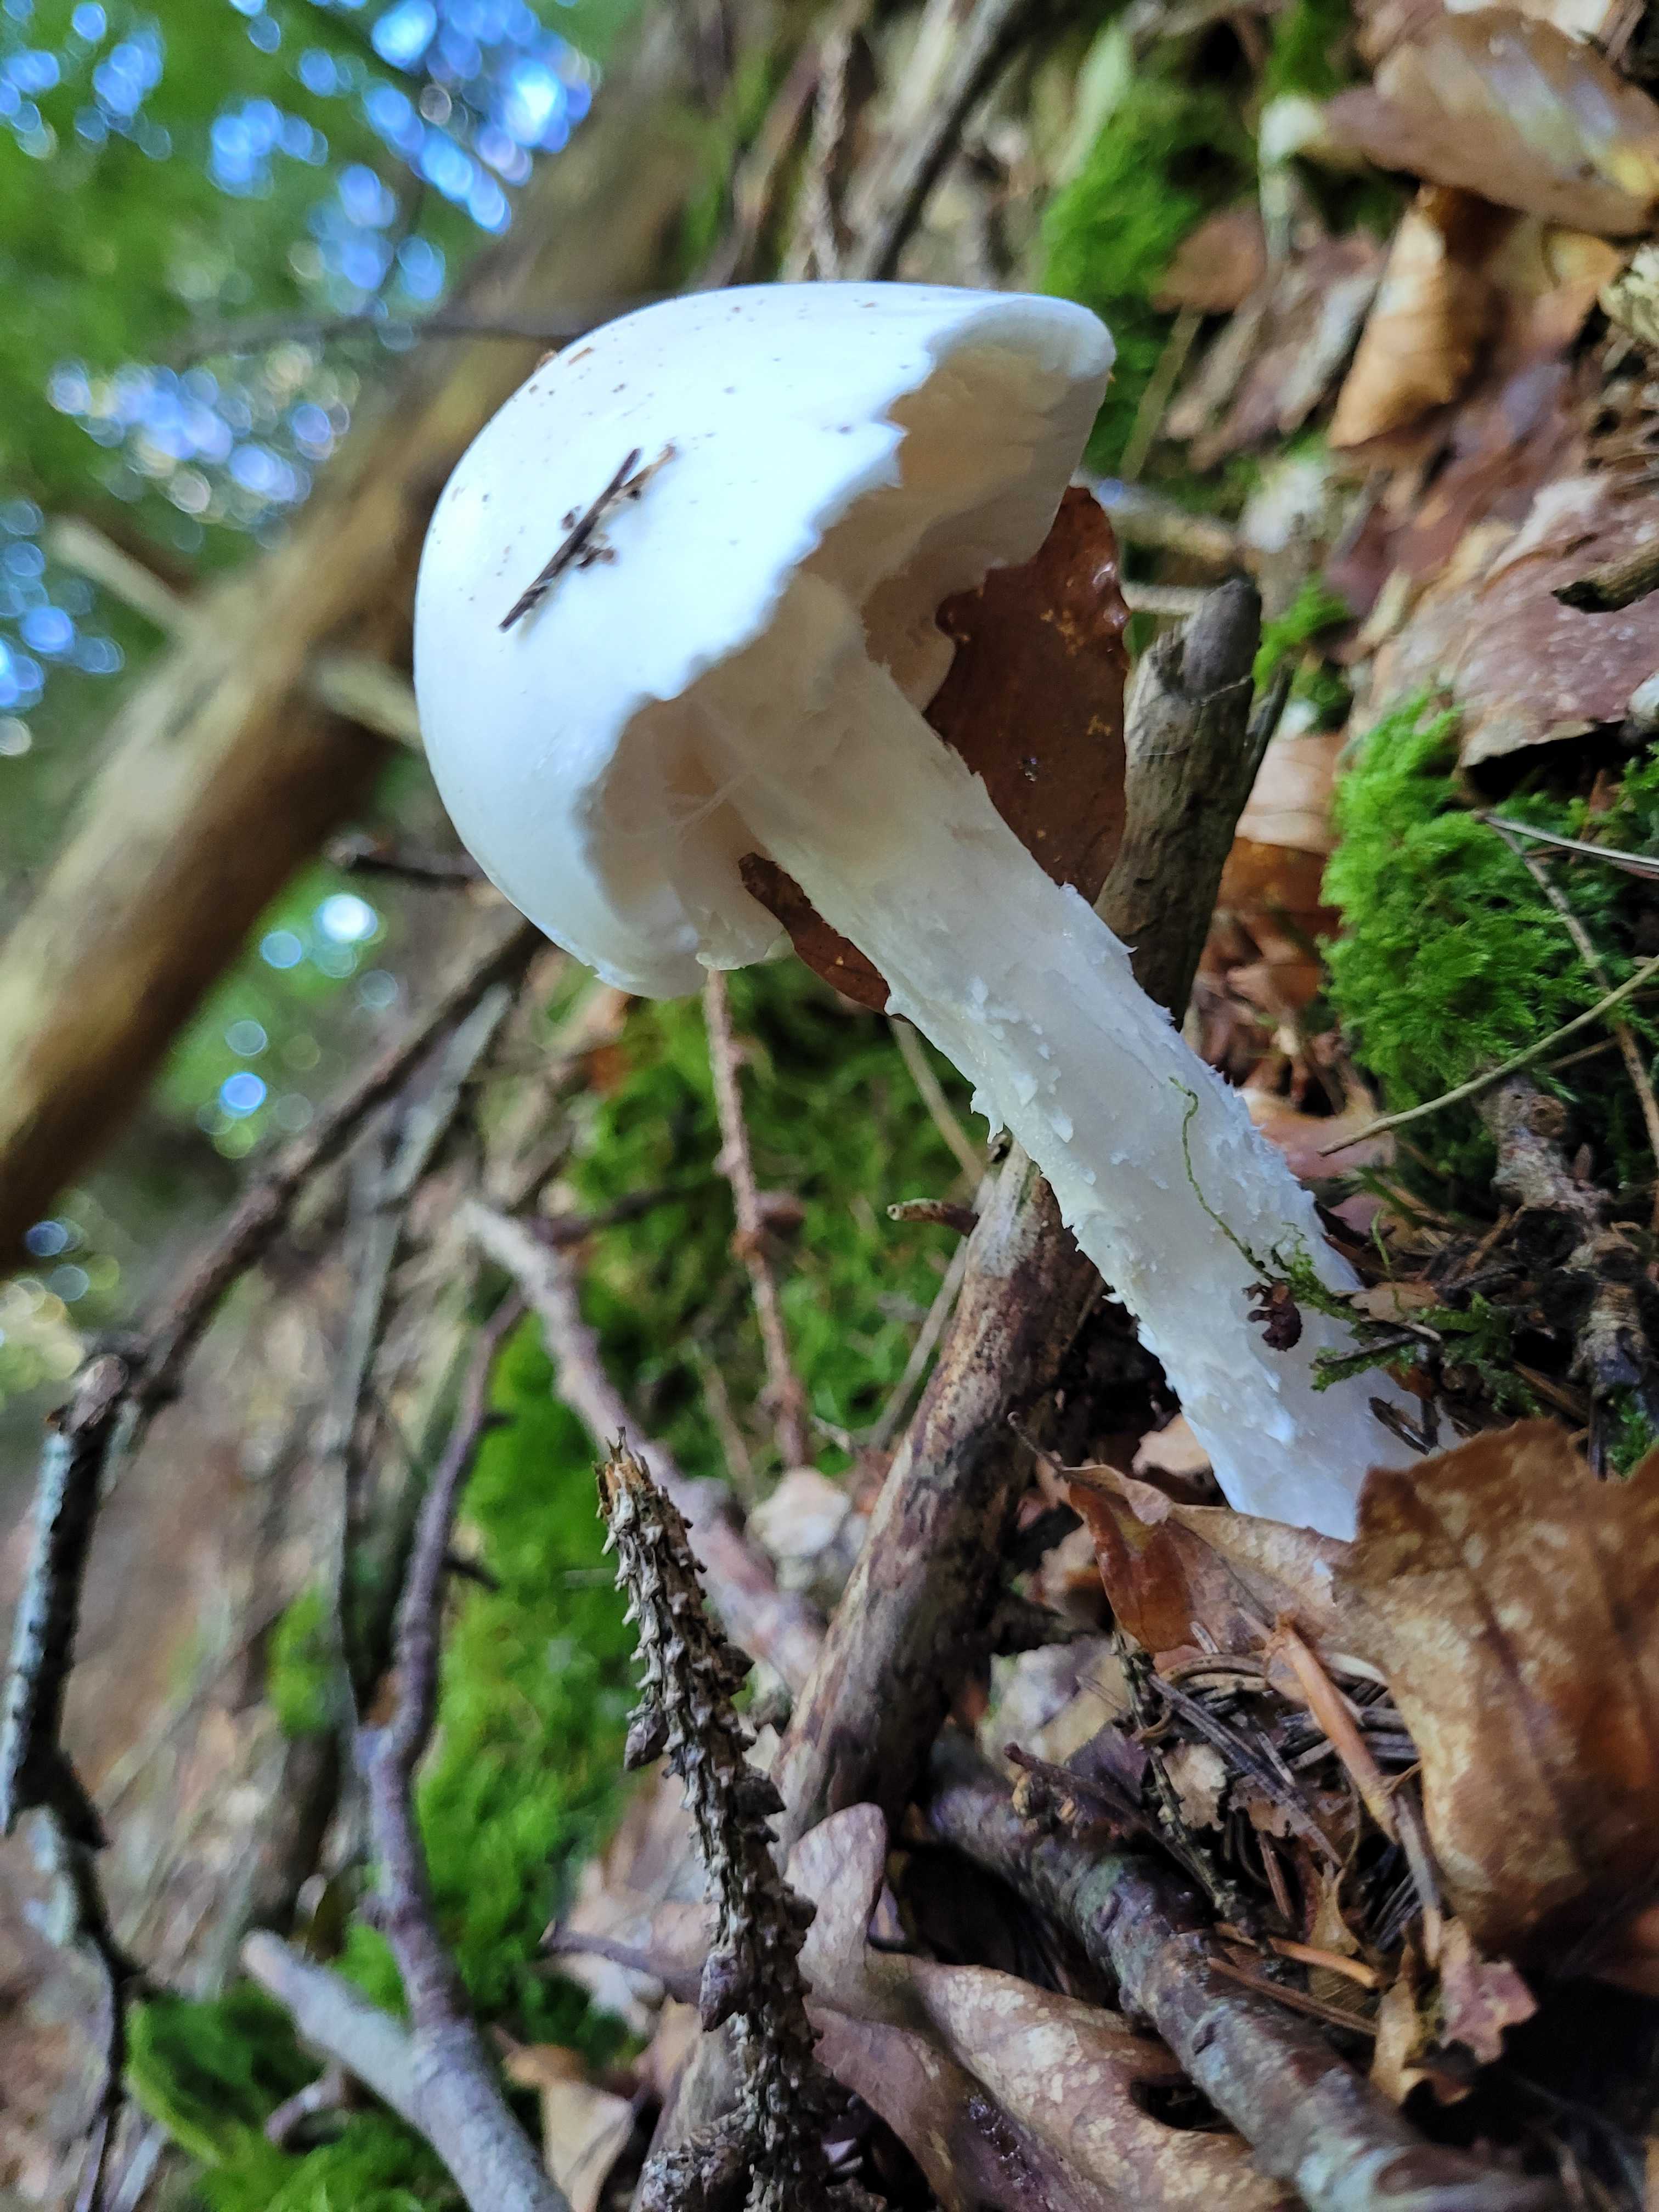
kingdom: Fungi
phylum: Basidiomycota
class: Agaricomycetes
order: Agaricales
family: Amanitaceae
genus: Amanita
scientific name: Amanita virosa
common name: snehvid fluesvamp
